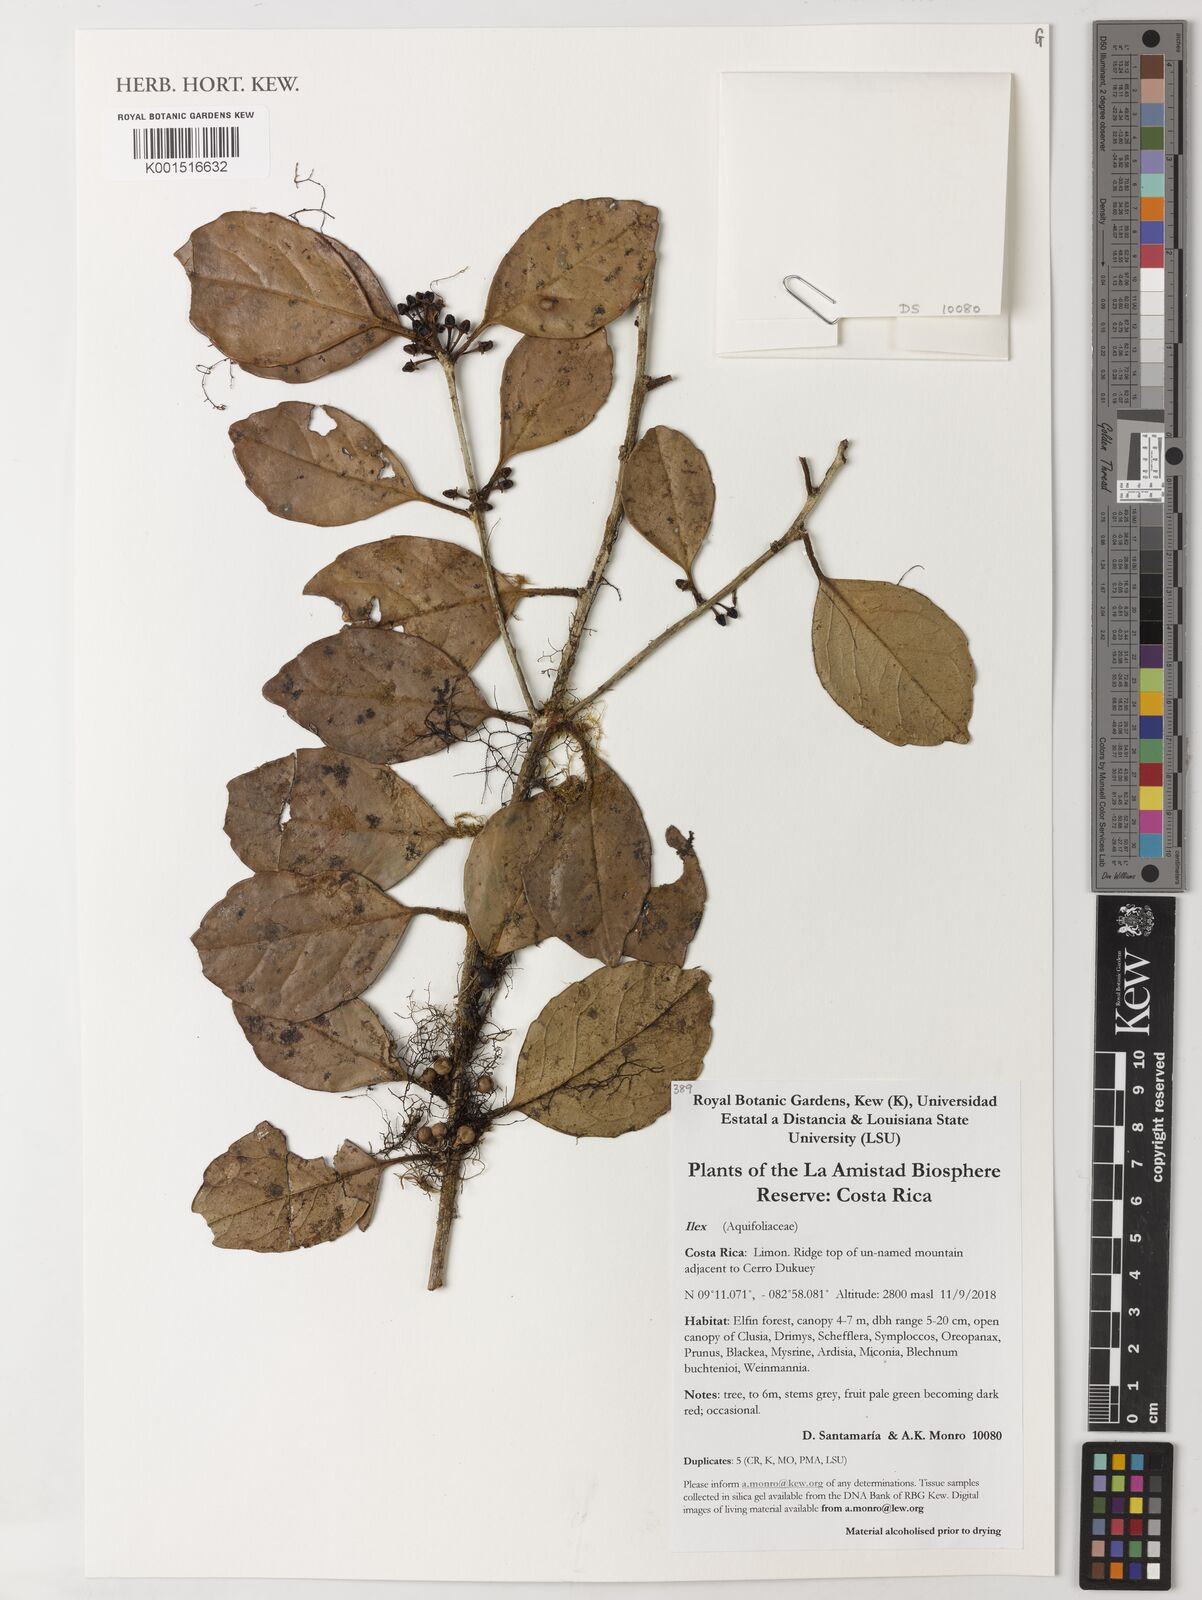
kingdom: Plantae
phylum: Tracheophyta
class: Magnoliopsida
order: Aquifoliales
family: Aquifoliaceae
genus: Ilex
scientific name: Ilex
